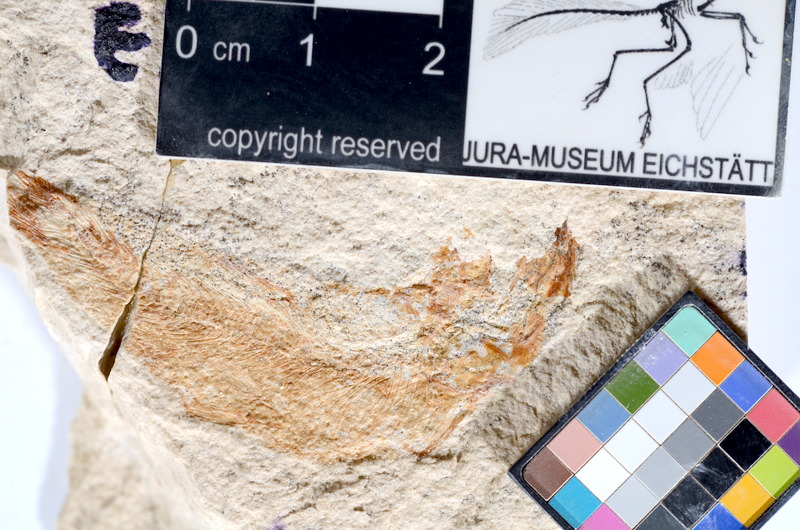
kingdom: Animalia
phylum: Chordata
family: Ascalaboidae
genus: Tharsis
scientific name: Tharsis dubius
